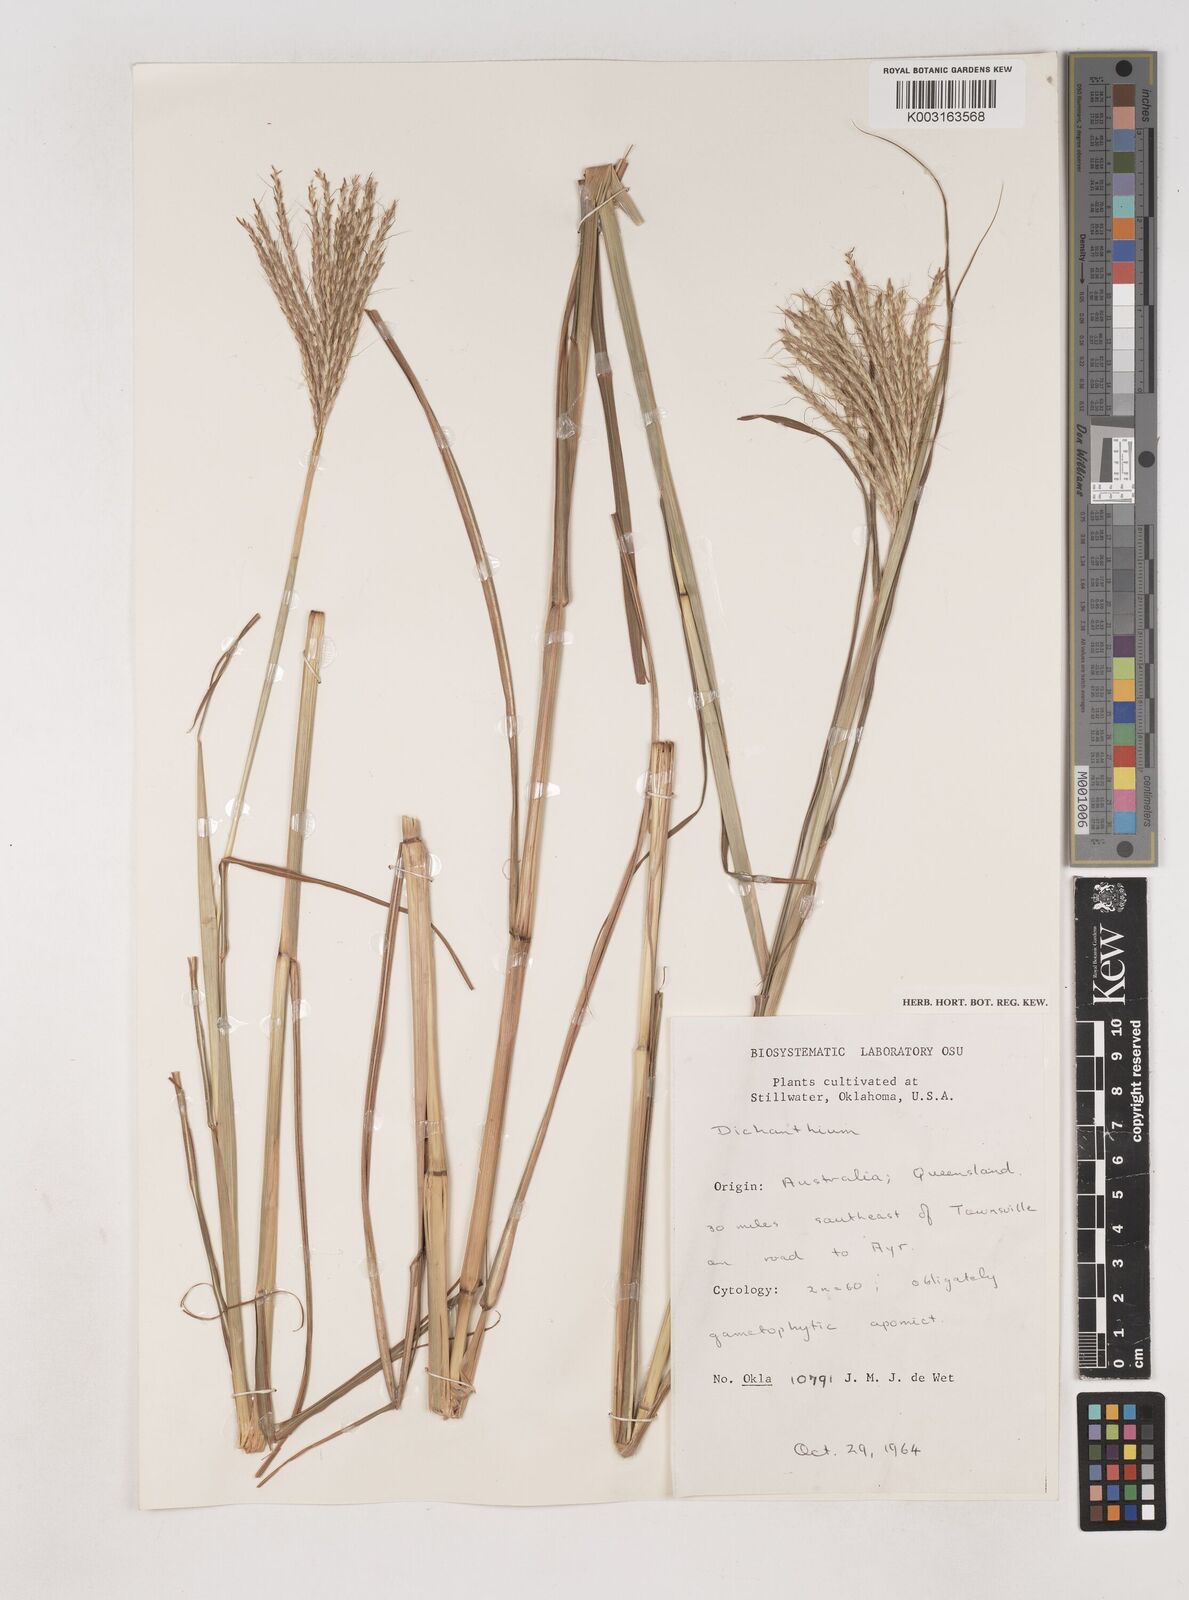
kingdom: Plantae
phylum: Tracheophyta
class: Liliopsida
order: Poales
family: Poaceae
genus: Dichanthium
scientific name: Dichanthium
